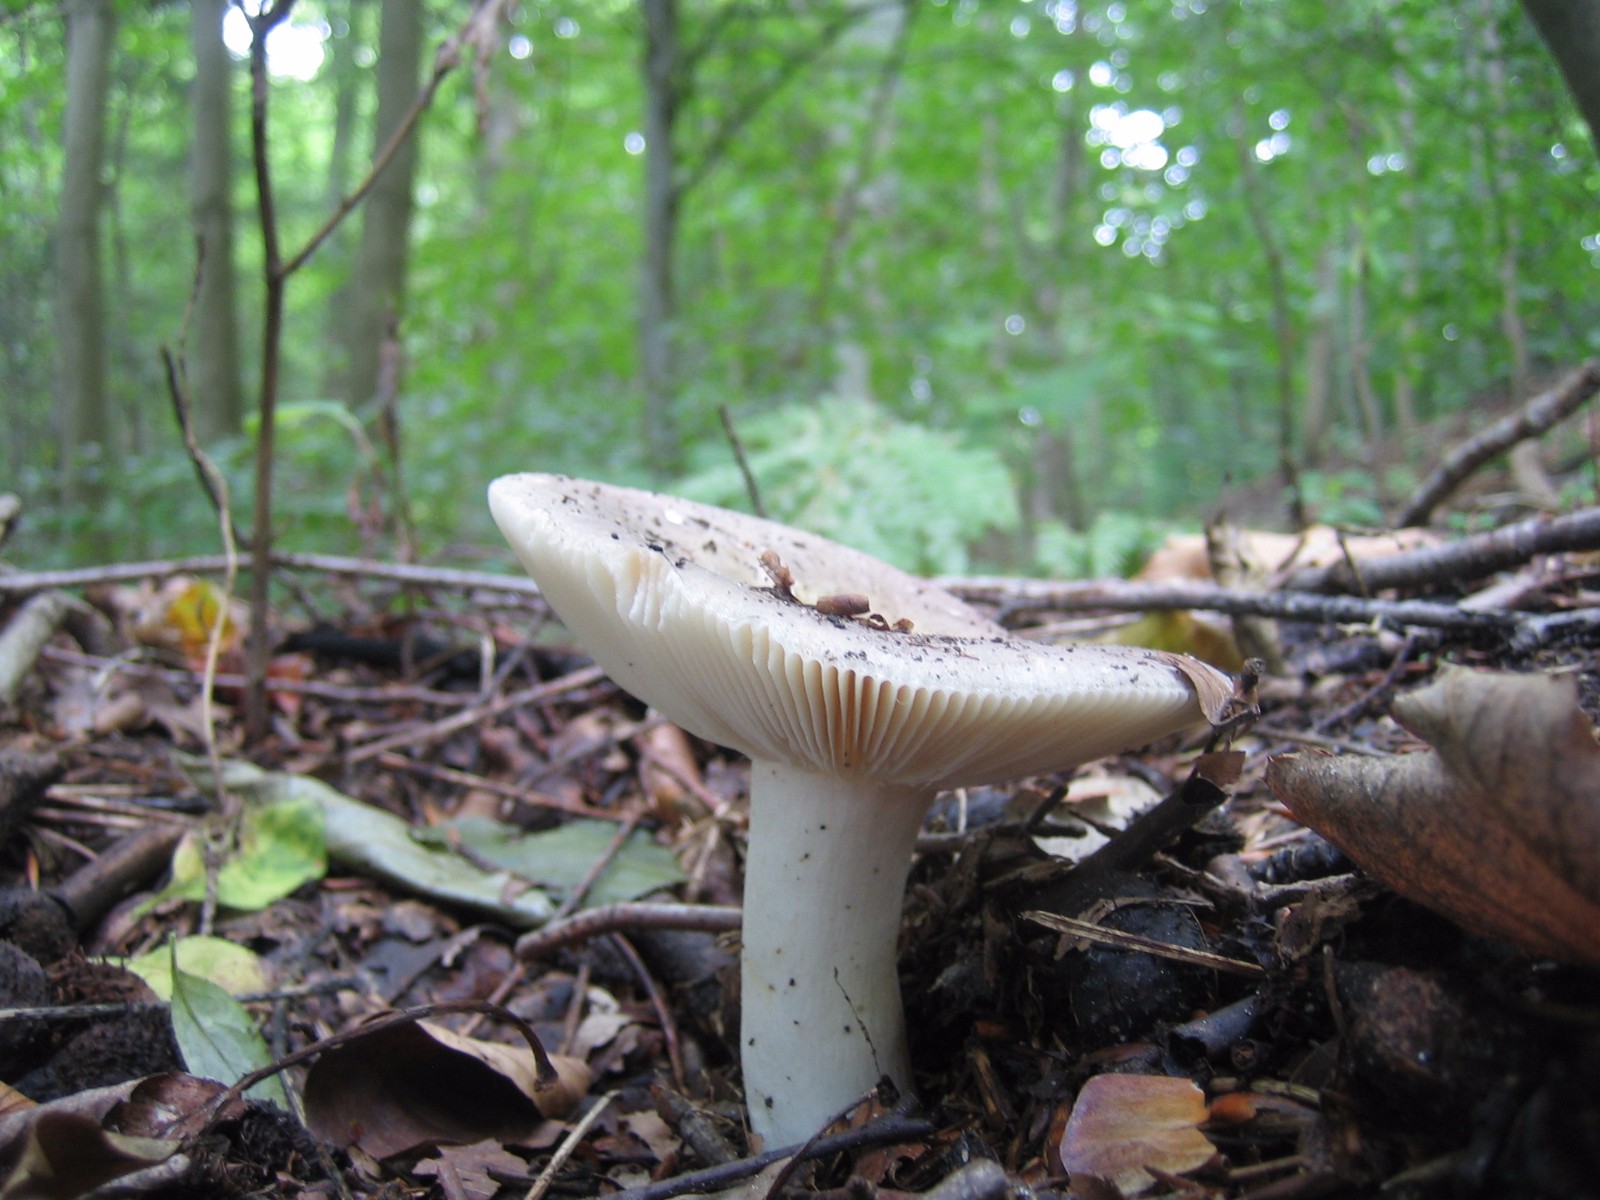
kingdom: Fungi
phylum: Basidiomycota
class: Agaricomycetes
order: Russulales
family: Russulaceae
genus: Russula
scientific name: Russula ionochlora
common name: violetgrøn skørhat
